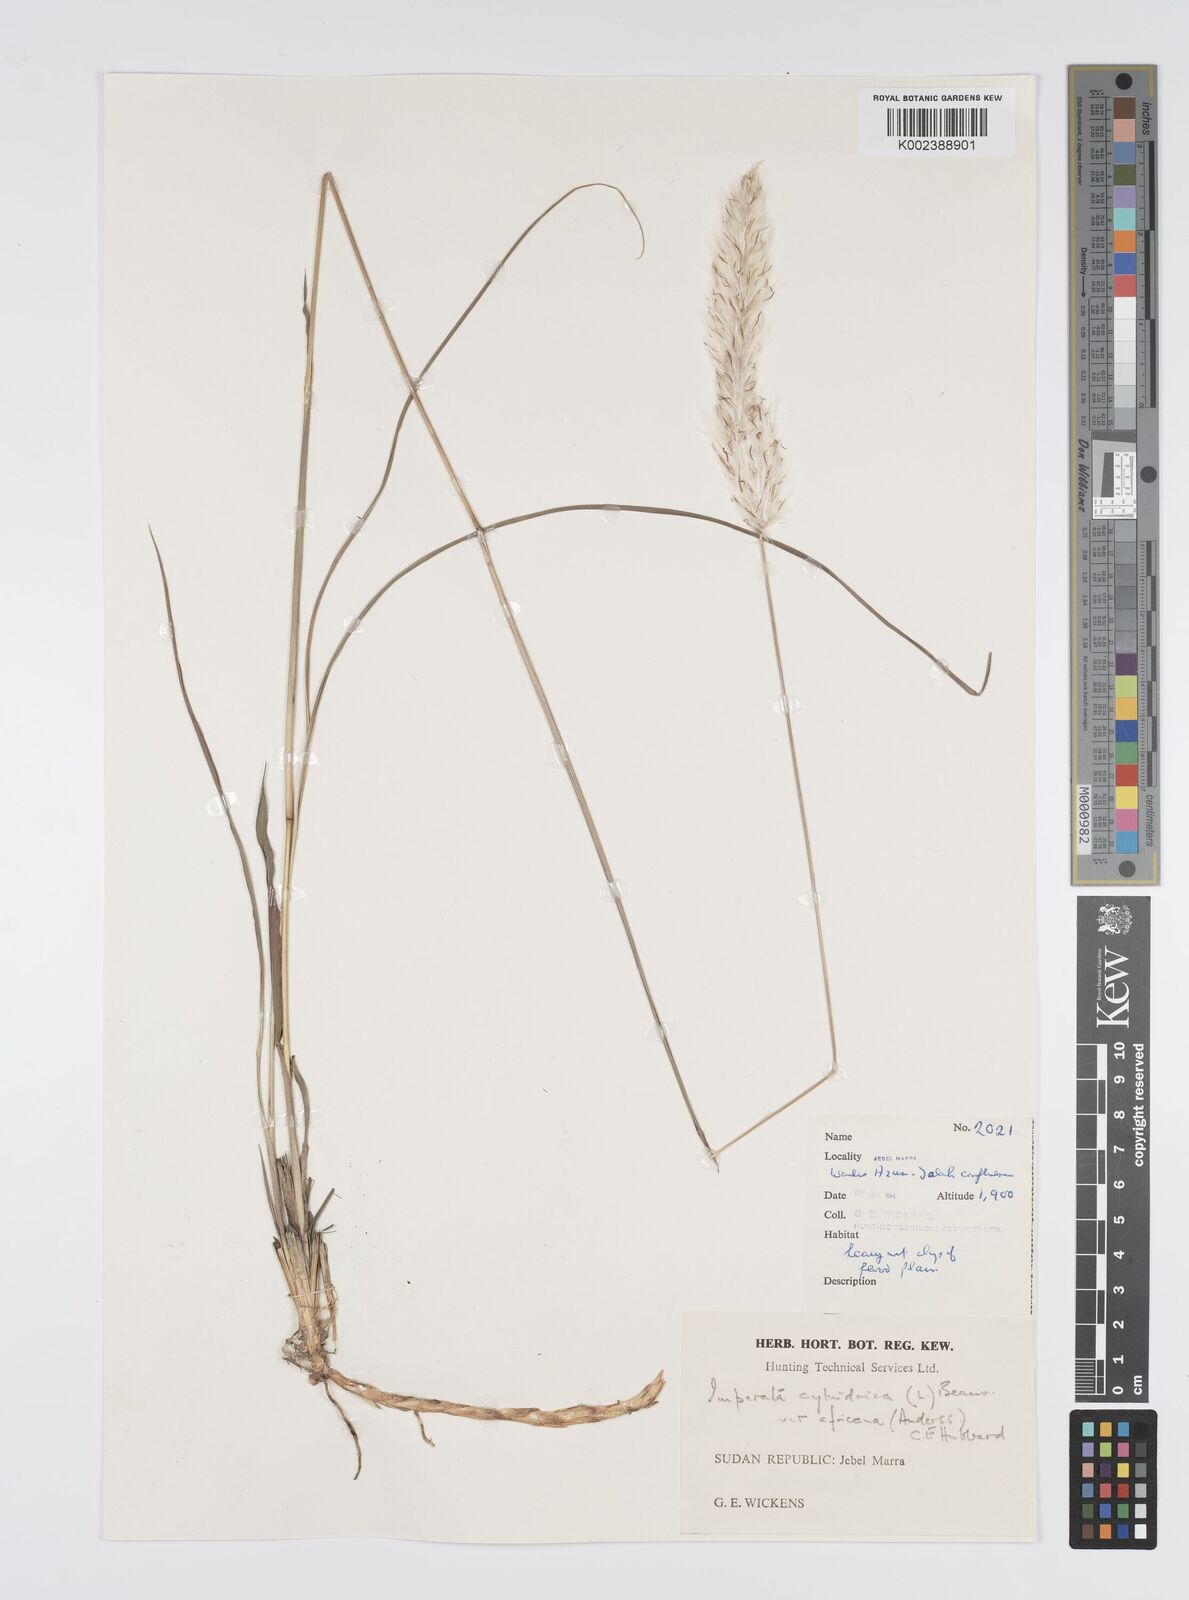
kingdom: Plantae
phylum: Tracheophyta
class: Liliopsida
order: Poales
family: Poaceae
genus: Imperata
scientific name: Imperata cylindrica
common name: Cogongrass
